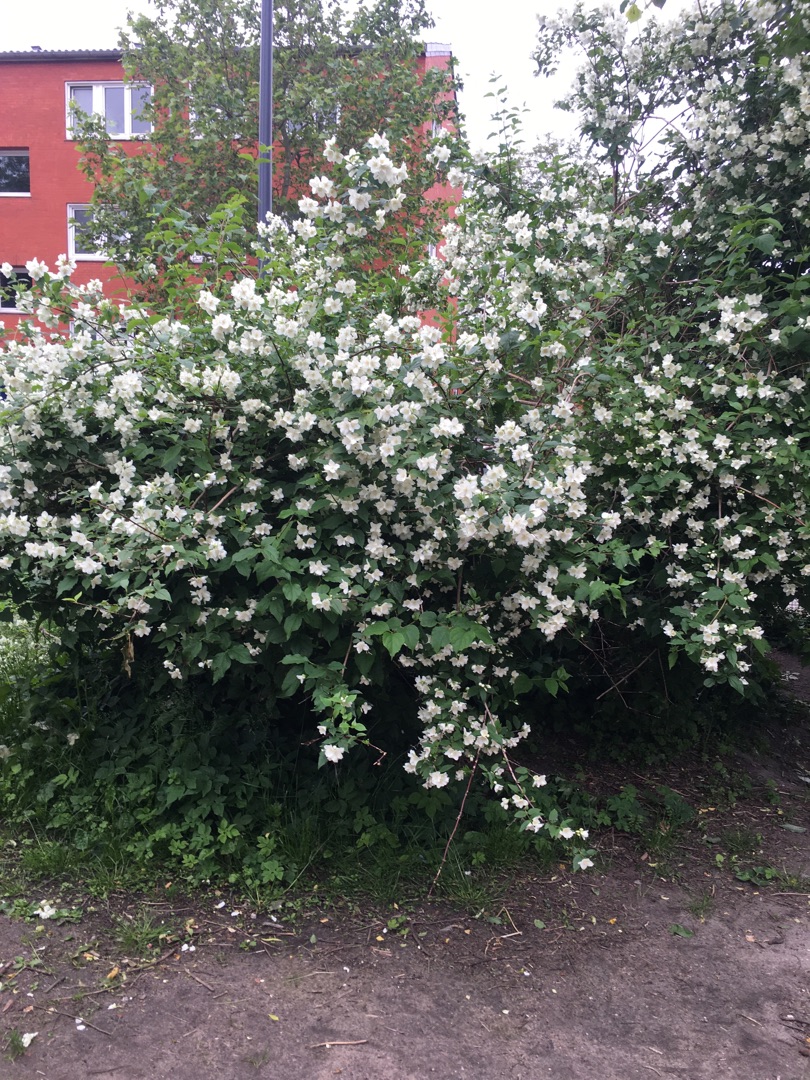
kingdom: Plantae
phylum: Tracheophyta
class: Magnoliopsida
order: Cornales
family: Hydrangeaceae
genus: Philadelphus
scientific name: Philadelphus
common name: Pibevedslægten
